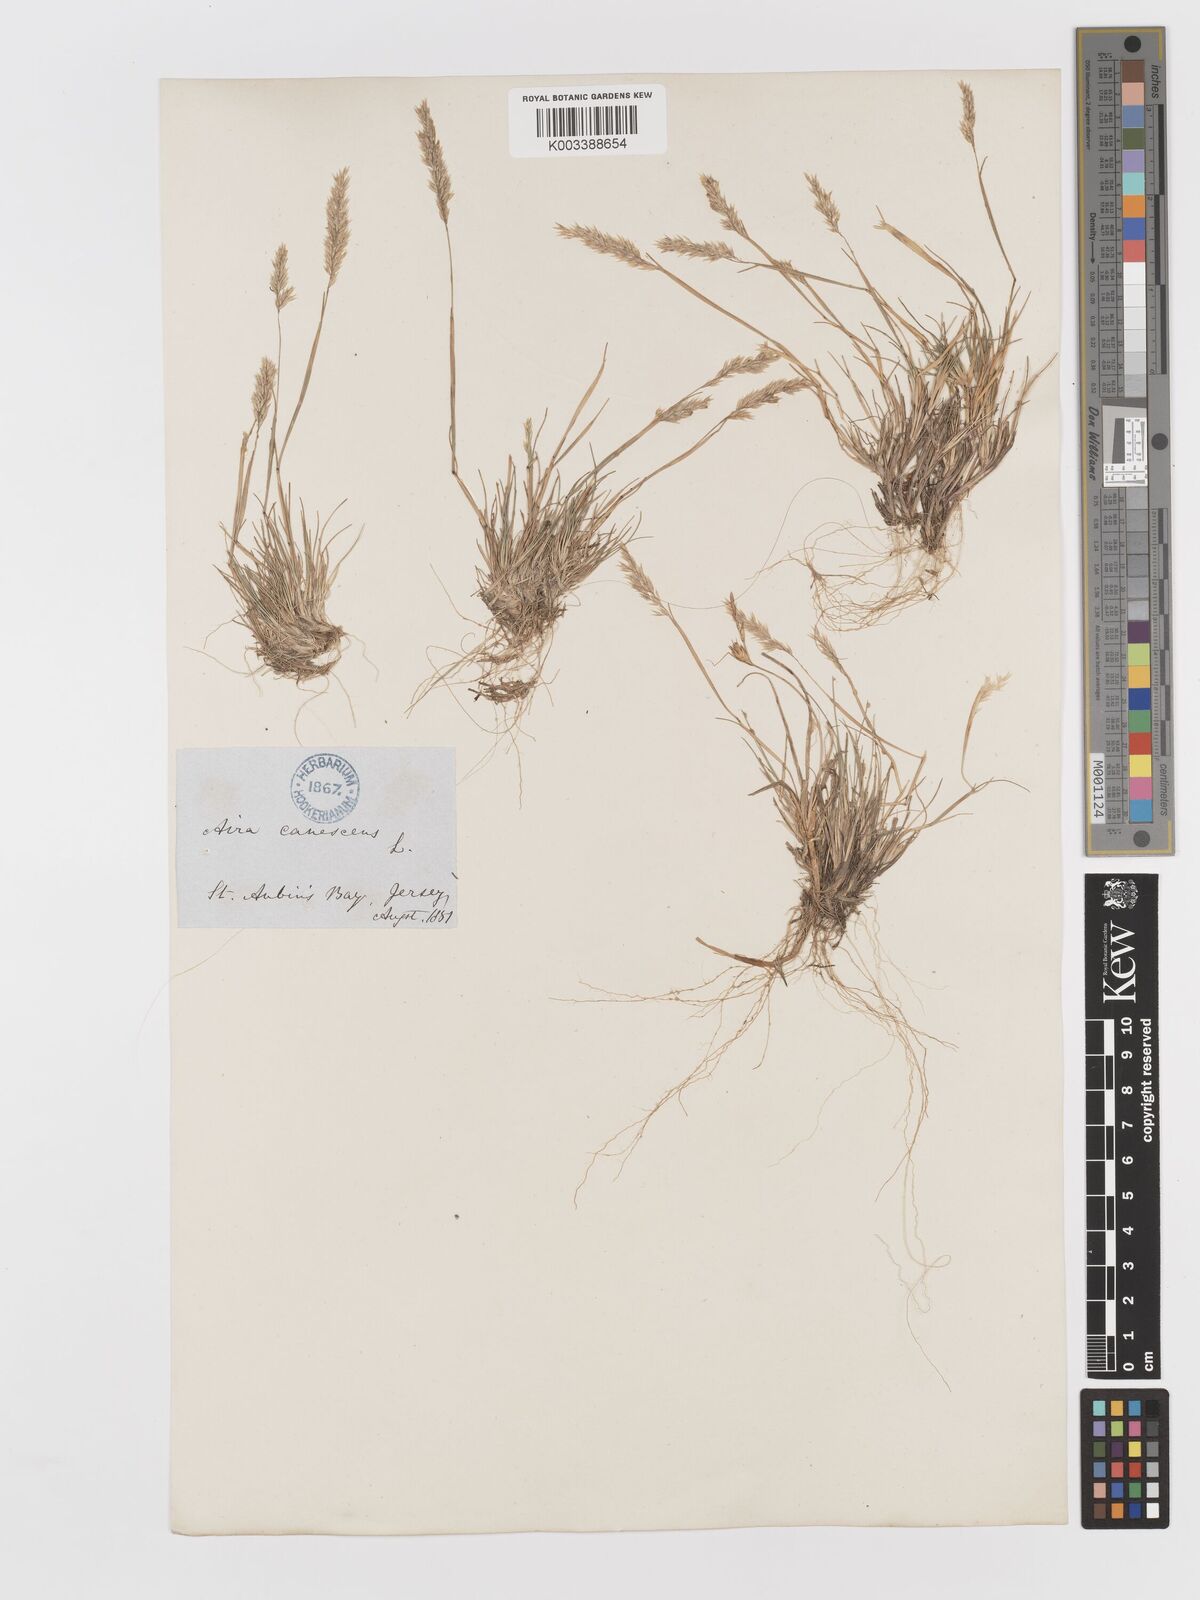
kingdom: Plantae
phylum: Tracheophyta
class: Liliopsida
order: Poales
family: Poaceae
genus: Corynephorus
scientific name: Corynephorus canescens
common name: Grey hair-grass
